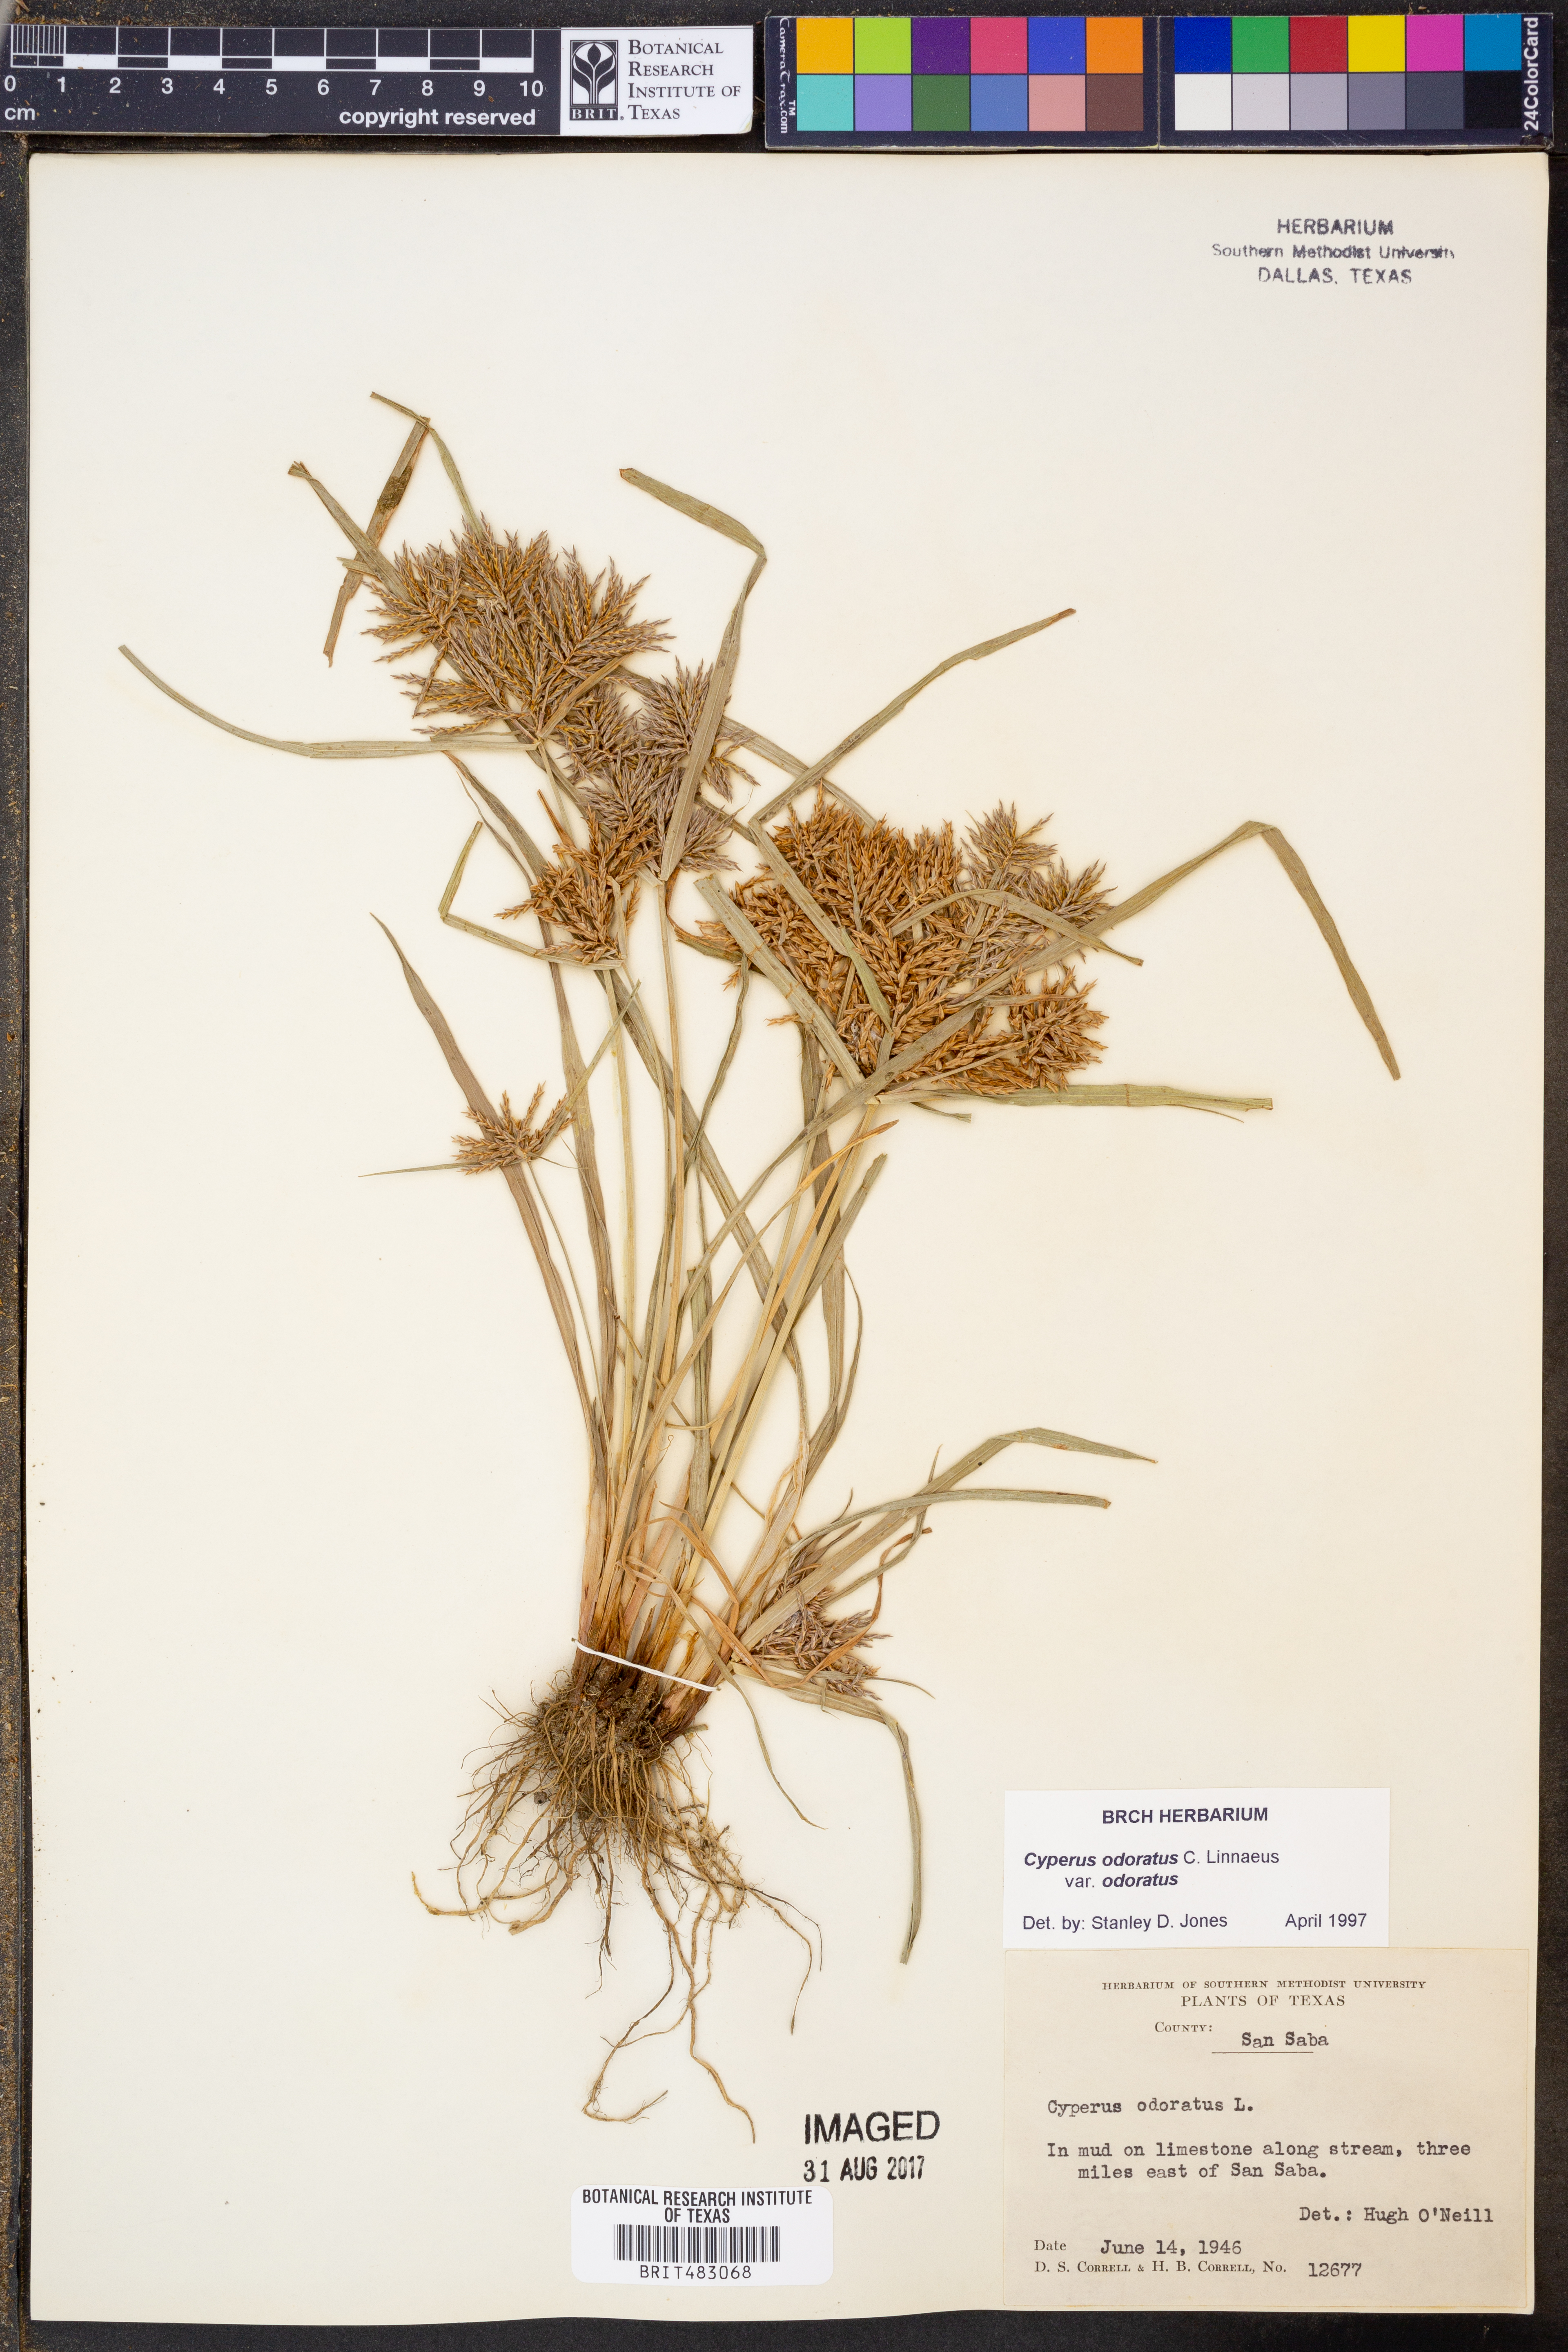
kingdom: Plantae
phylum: Tracheophyta
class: Liliopsida
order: Poales
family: Cyperaceae
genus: Cyperus
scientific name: Cyperus odoratus
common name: Fragrant flatsedge
